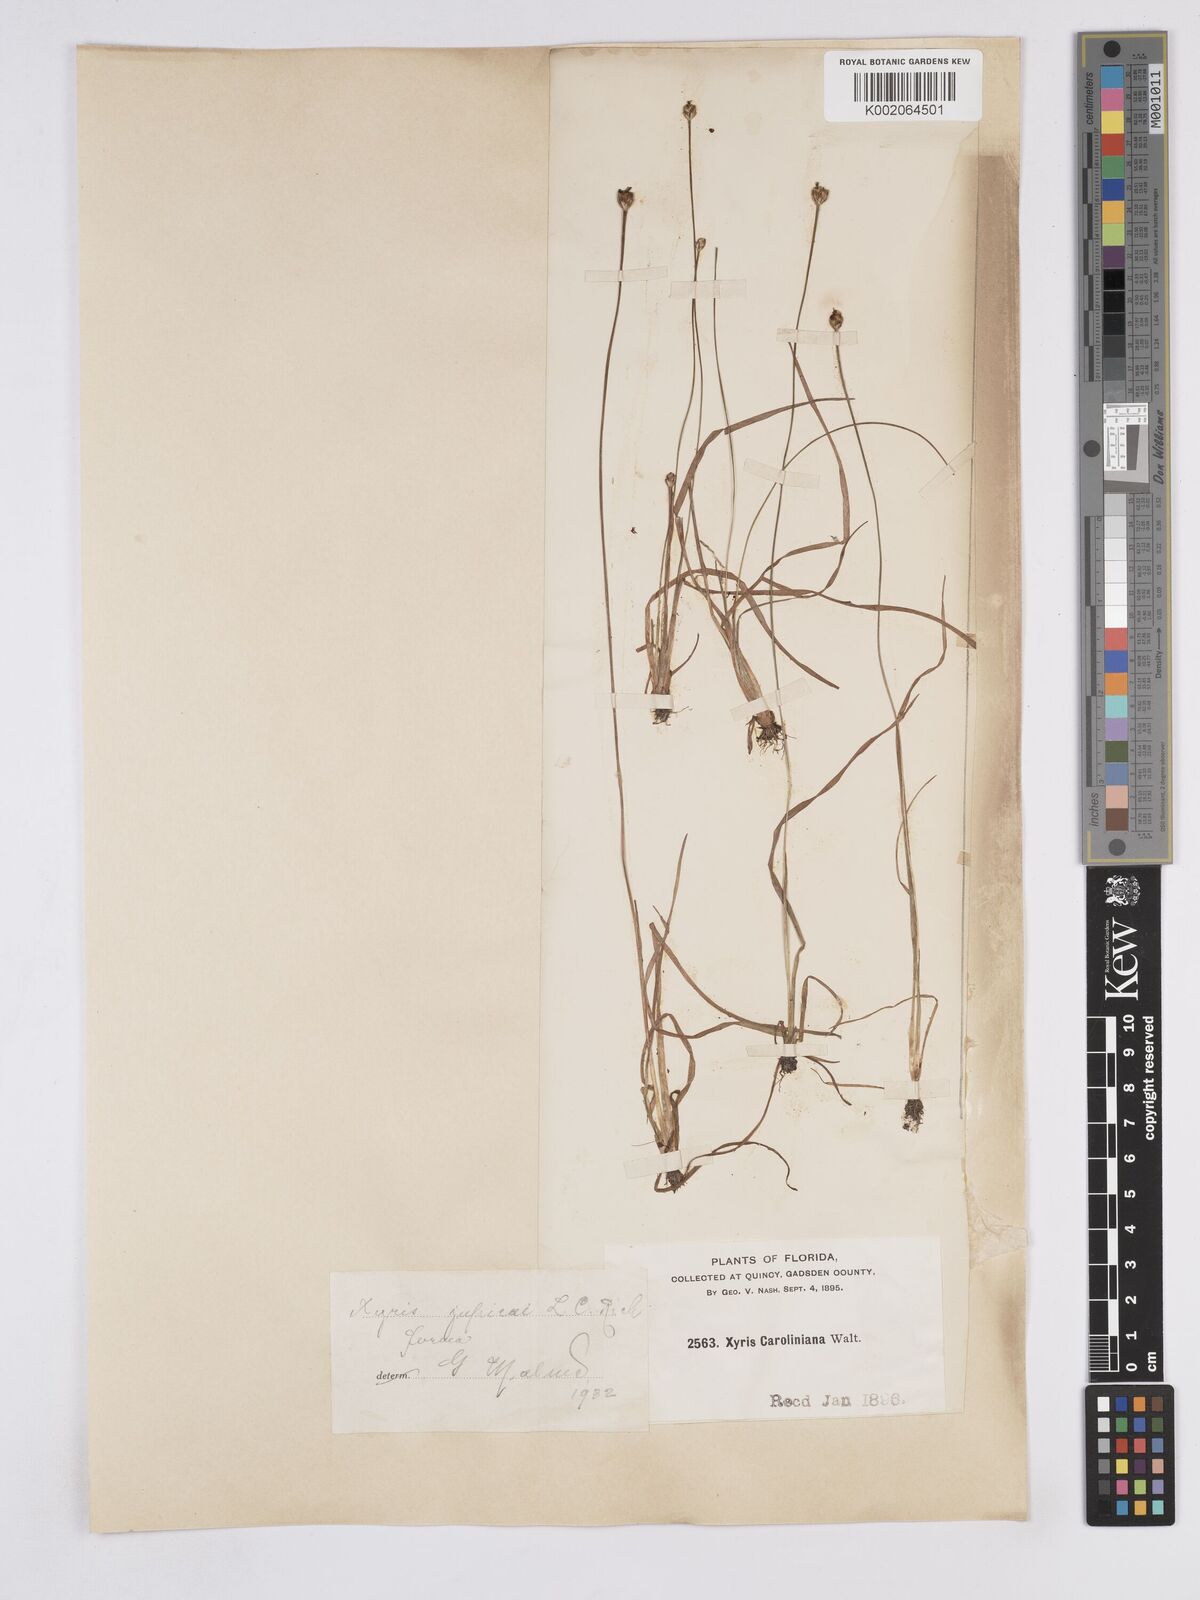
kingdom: Plantae
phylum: Tracheophyta
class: Liliopsida
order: Poales
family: Xyridaceae
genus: Xyris
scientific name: Xyris jupicai
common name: Richard's yelloweyed grass
